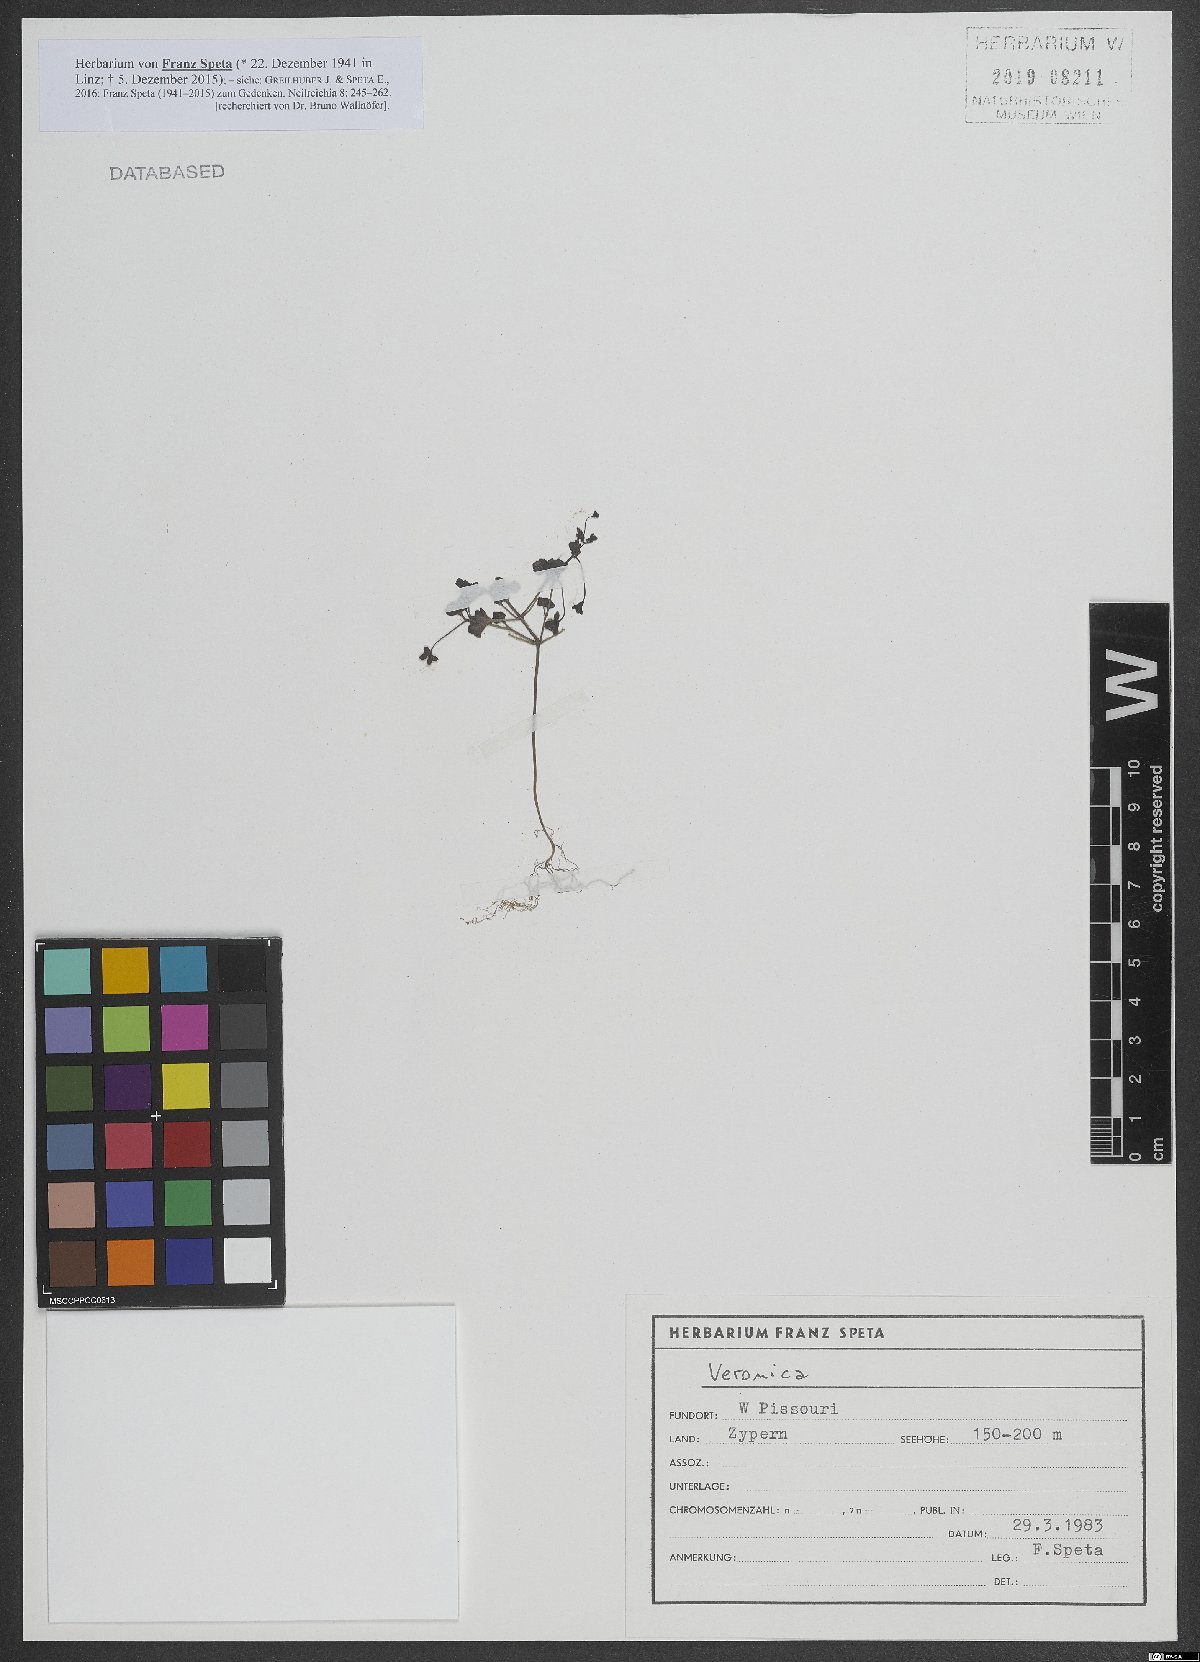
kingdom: Plantae
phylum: Tracheophyta
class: Magnoliopsida
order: Lamiales
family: Plantaginaceae
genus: Veronica
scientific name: Veronica
